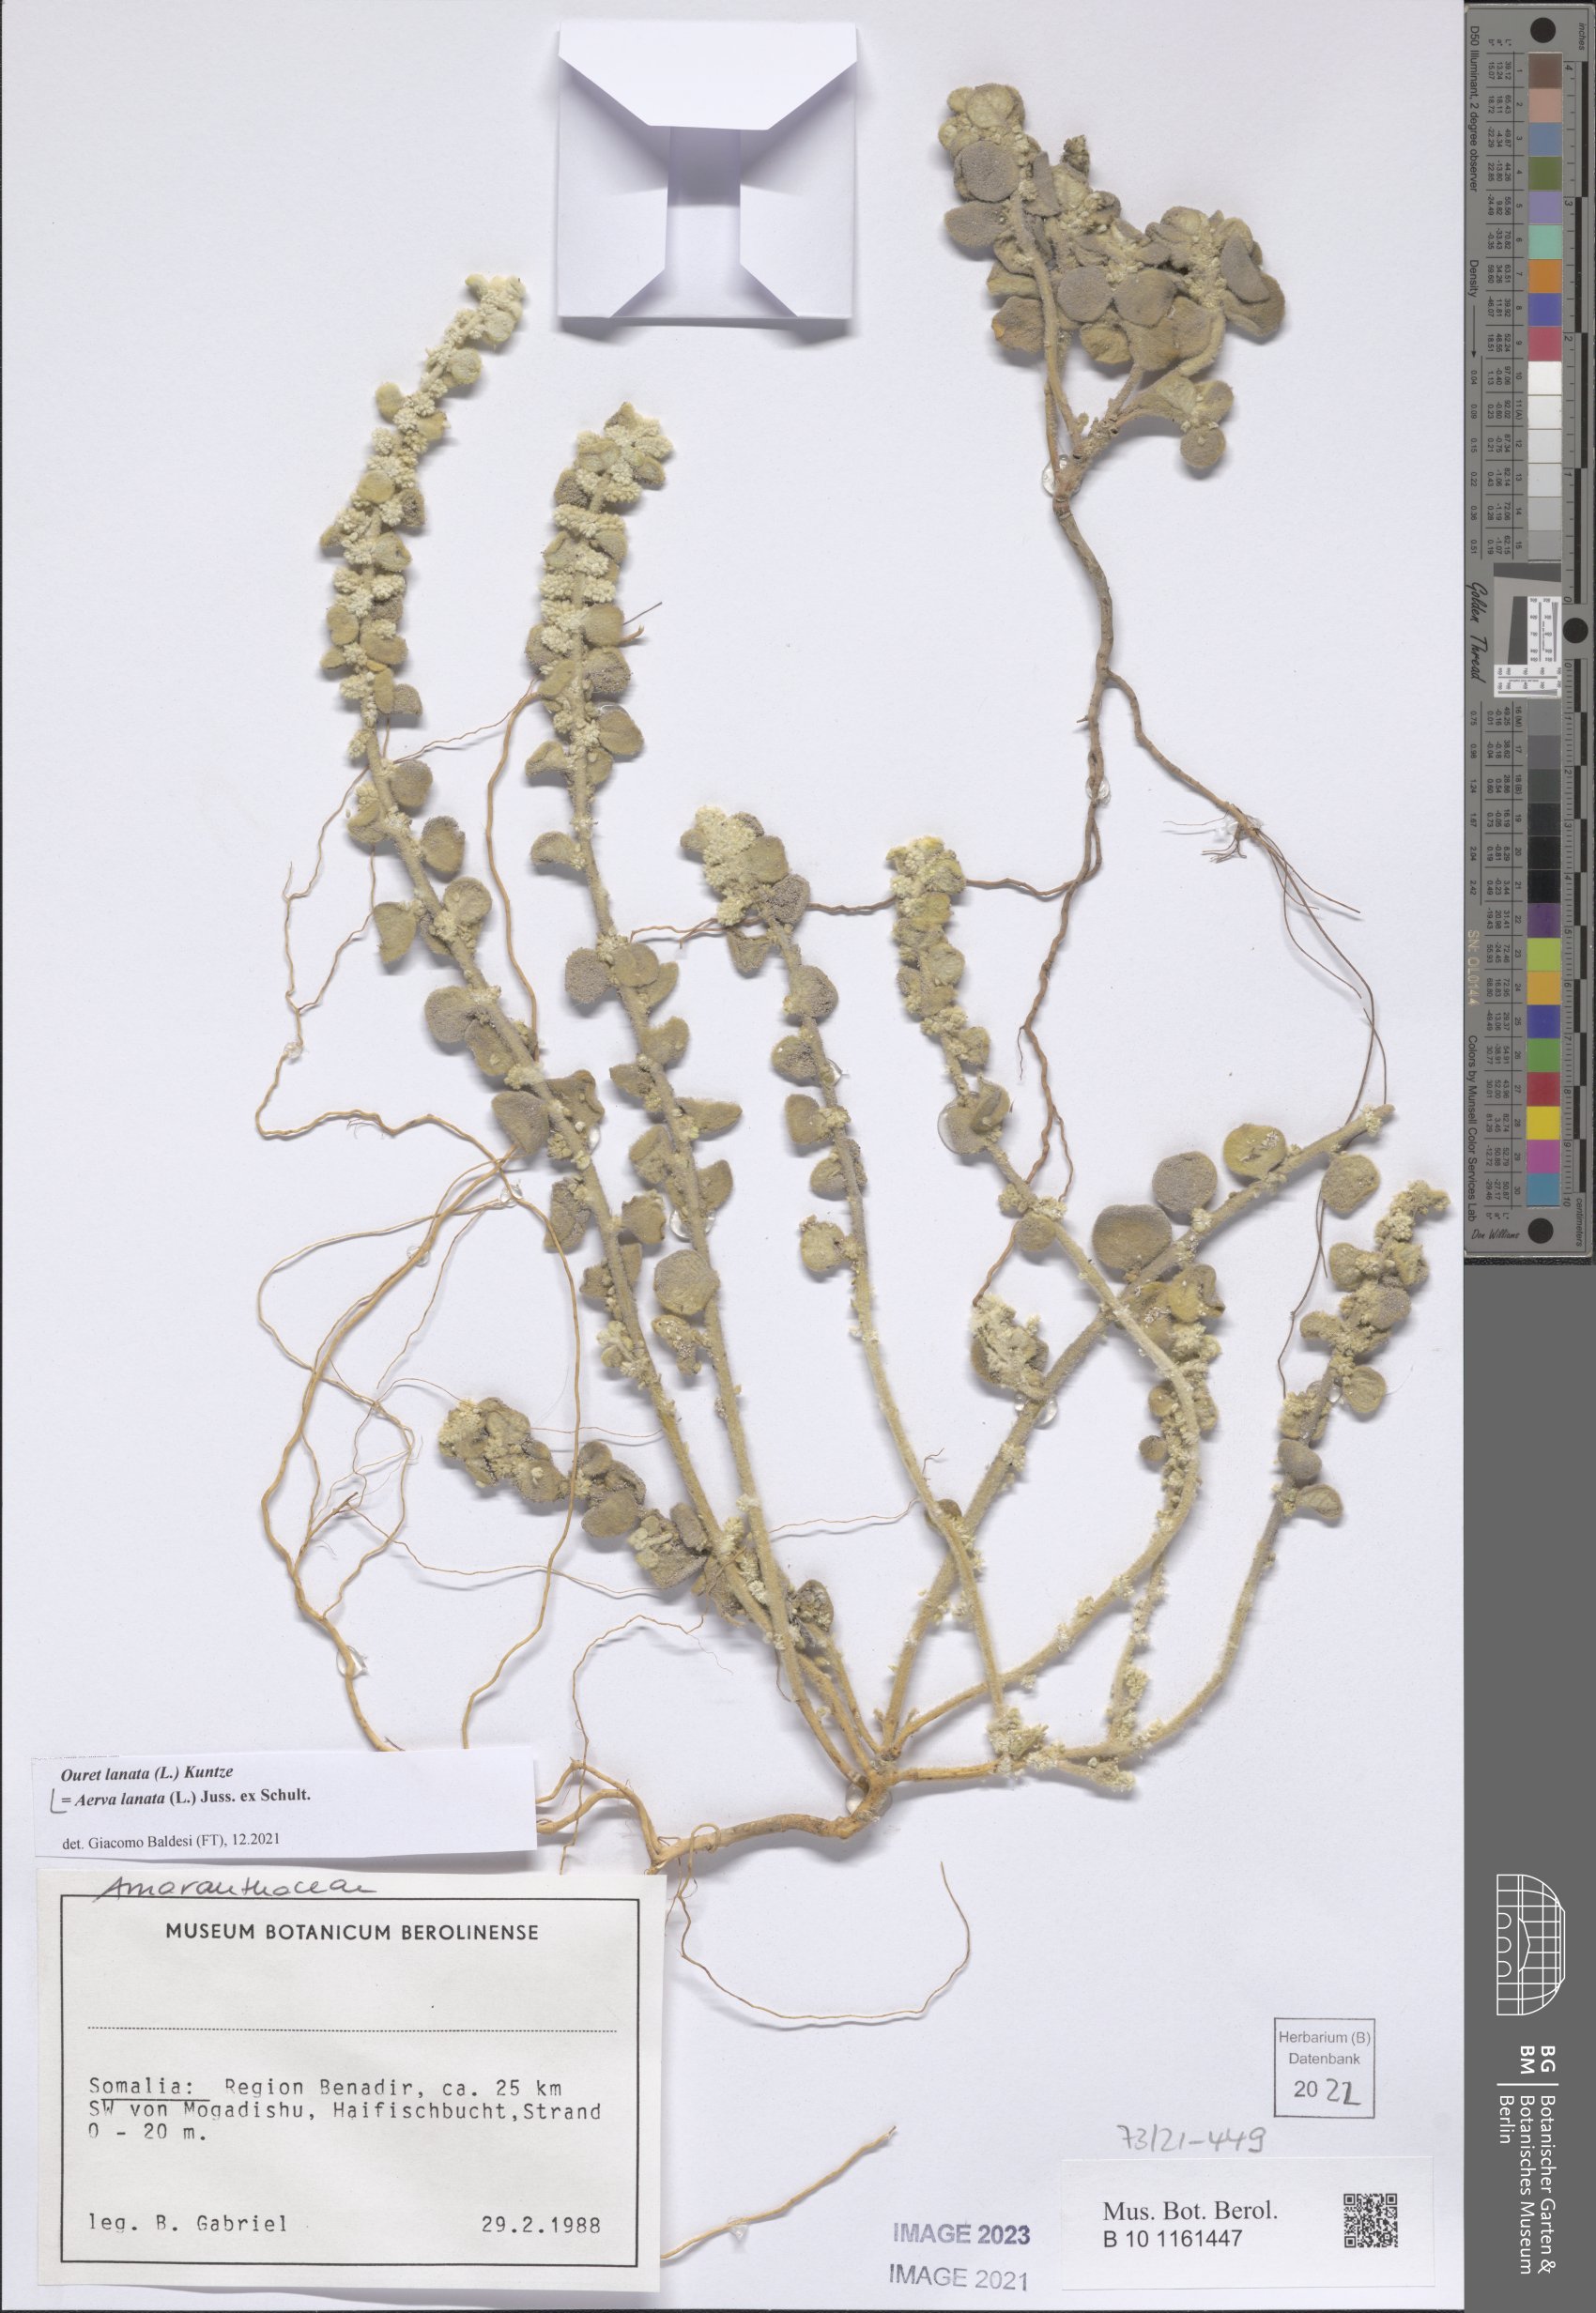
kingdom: Plantae
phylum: Tracheophyta
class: Magnoliopsida
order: Caryophyllales
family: Amaranthaceae
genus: Ouret
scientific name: Ouret lanata
